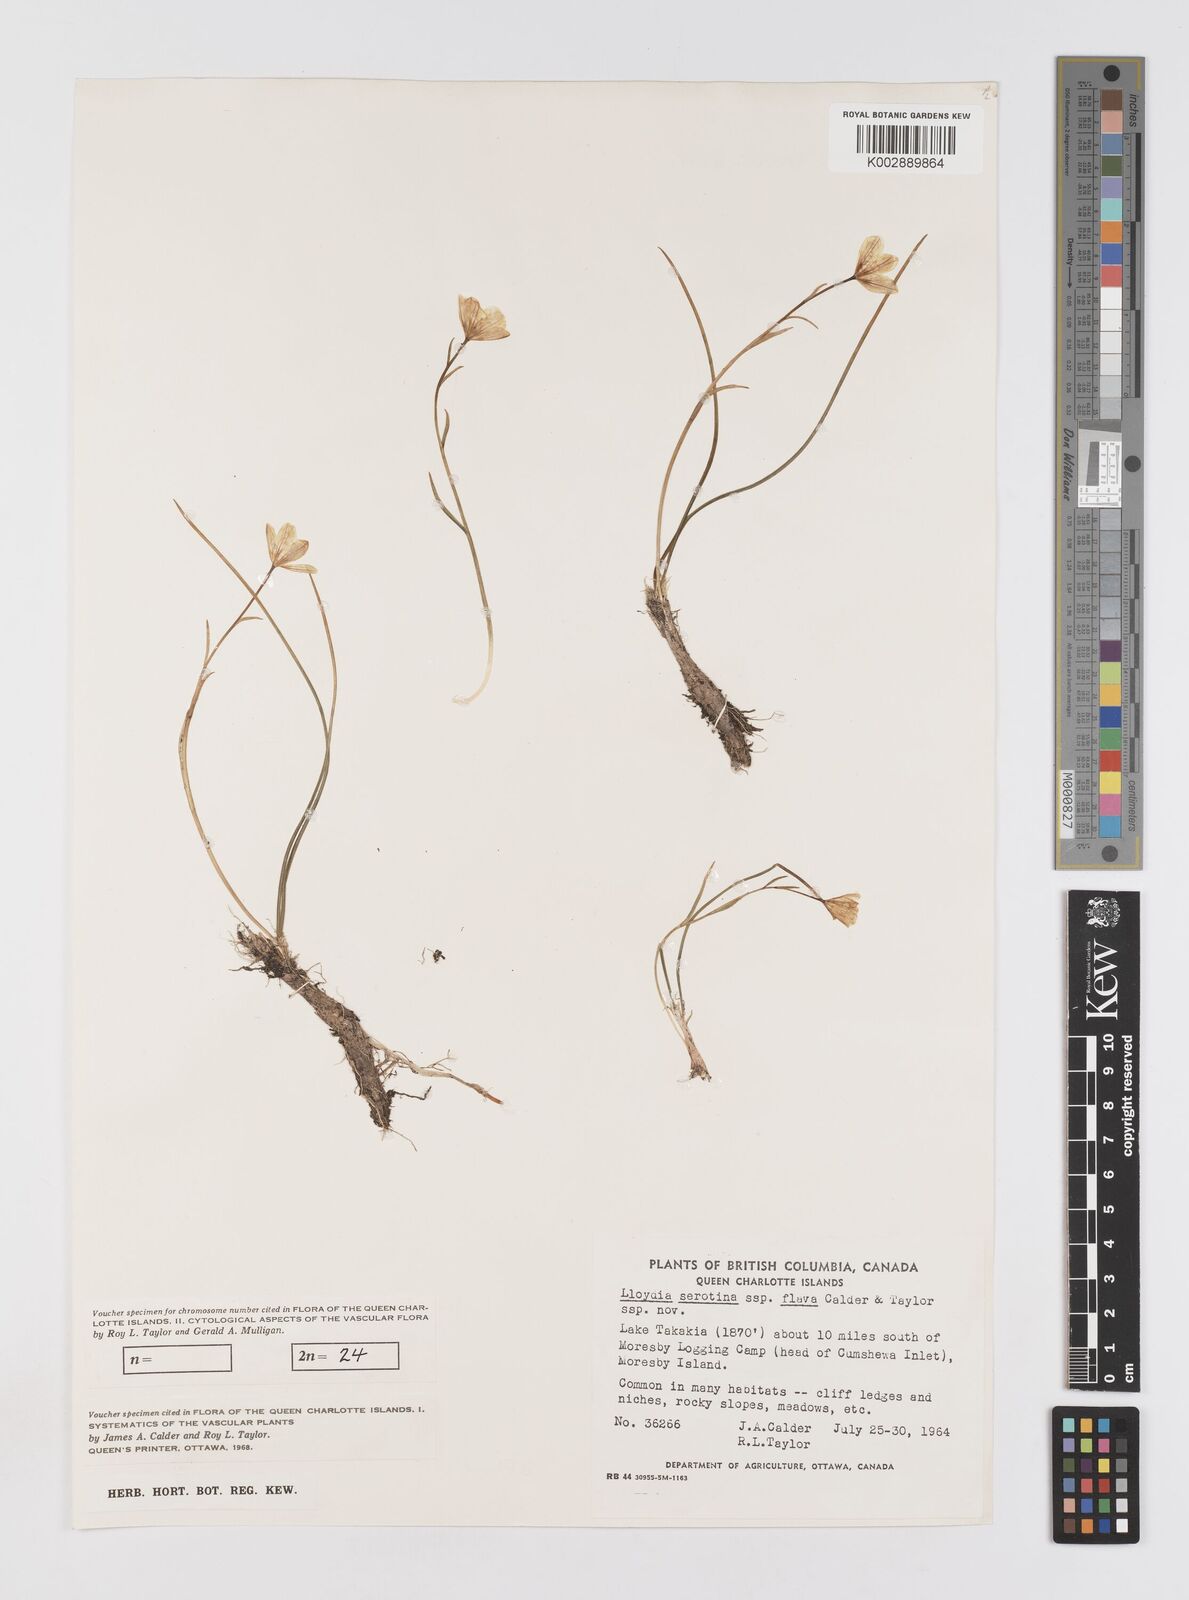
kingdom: Plantae
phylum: Tracheophyta
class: Liliopsida
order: Liliales
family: Liliaceae
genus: Gagea
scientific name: Gagea serotina
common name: Snowdon lily
